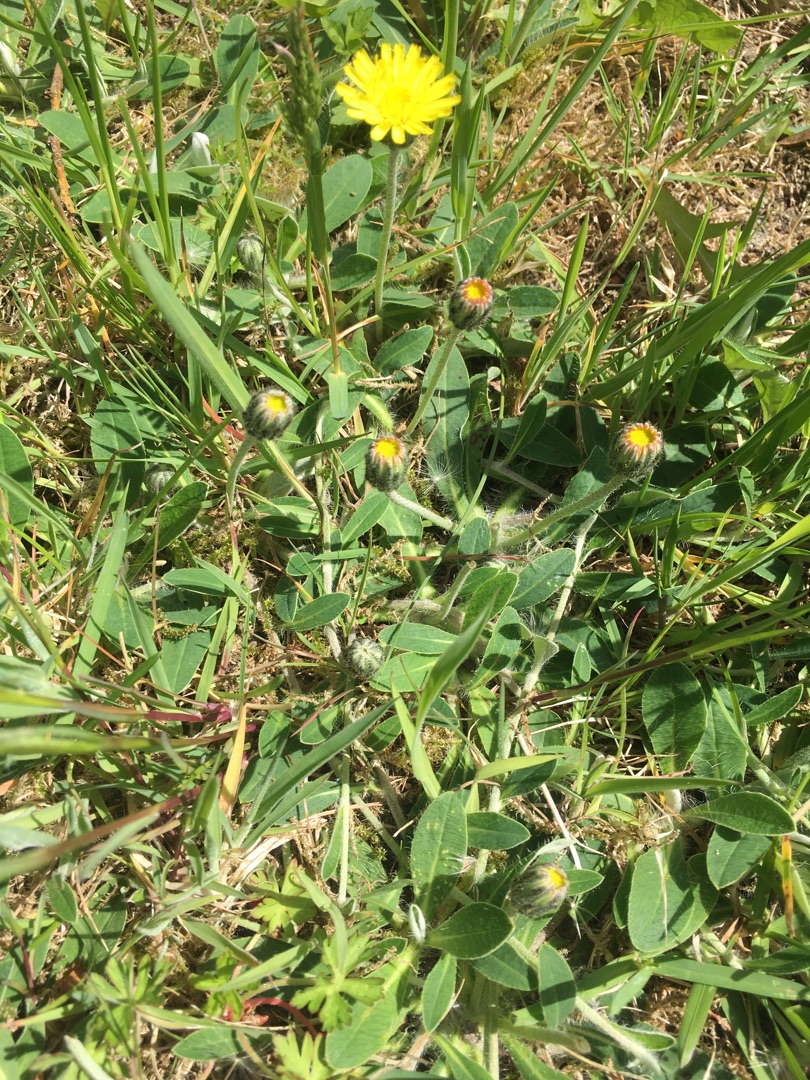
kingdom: Plantae
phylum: Tracheophyta
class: Magnoliopsida
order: Asterales
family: Asteraceae
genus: Pilosella
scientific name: Pilosella officinarum
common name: Håret høgeurt
